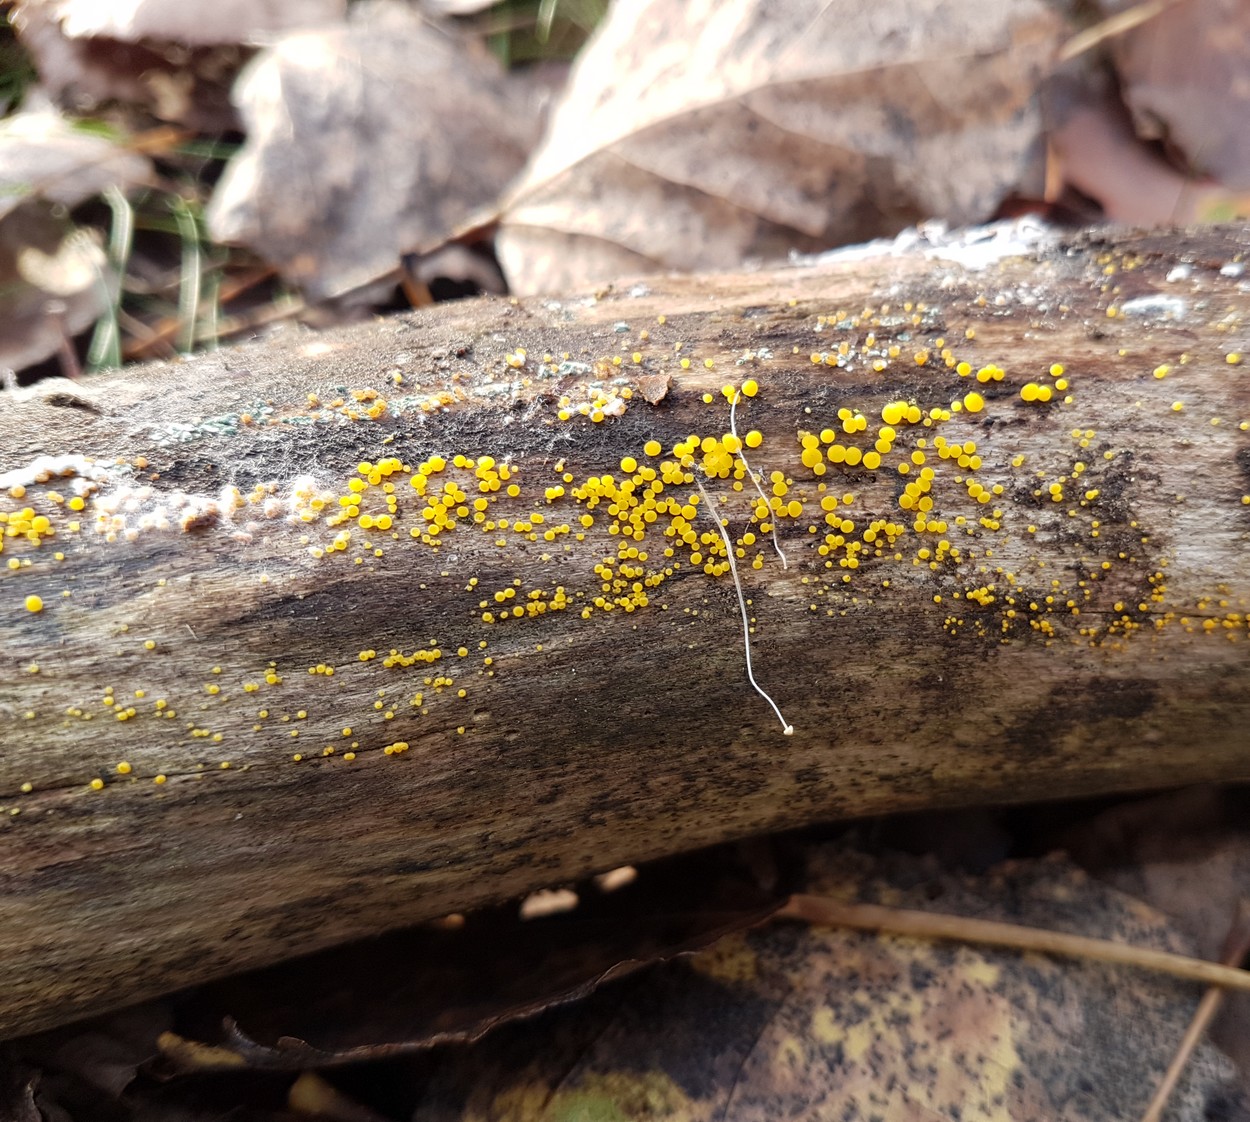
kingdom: Fungi
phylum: Ascomycota
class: Leotiomycetes
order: Helotiales
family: Pezizellaceae
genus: Calycina
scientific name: Calycina citrina
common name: almindelig gulskive
